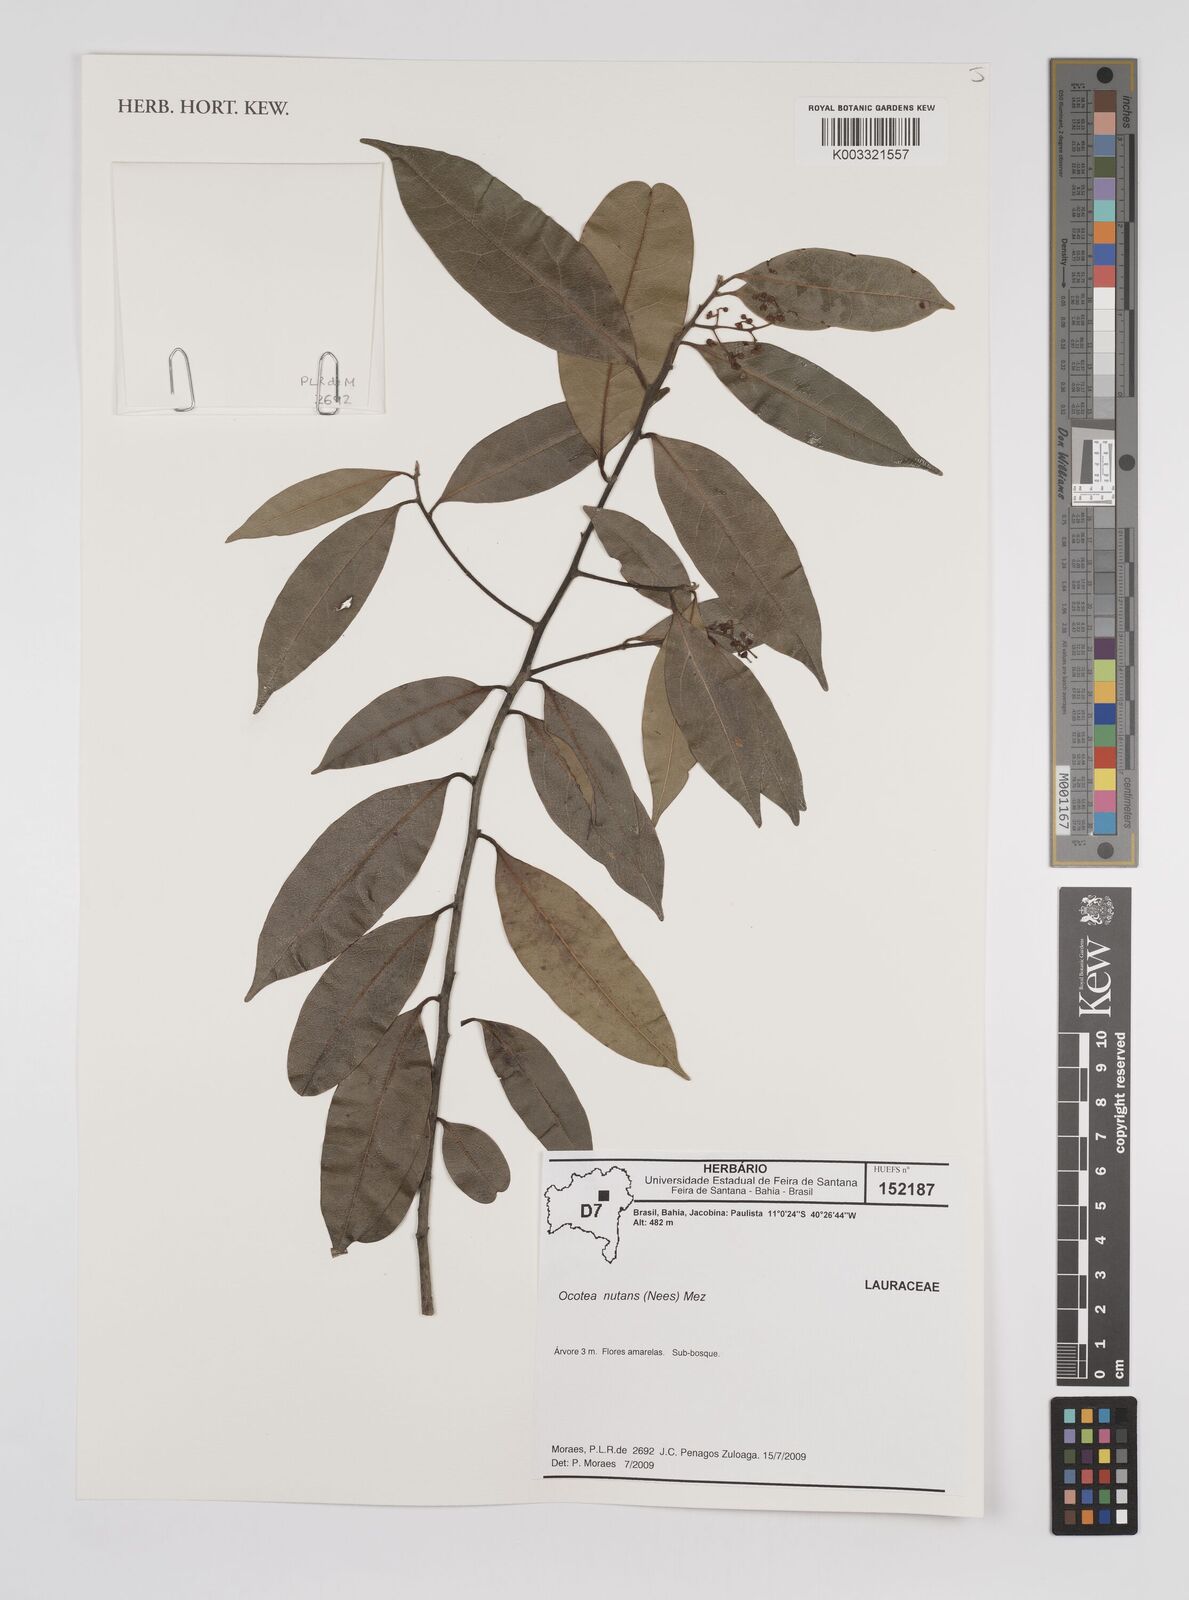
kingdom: Plantae
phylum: Tracheophyta
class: Magnoliopsida
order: Laurales
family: Lauraceae
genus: Mespilodaphne
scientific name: Mespilodaphne nutans
